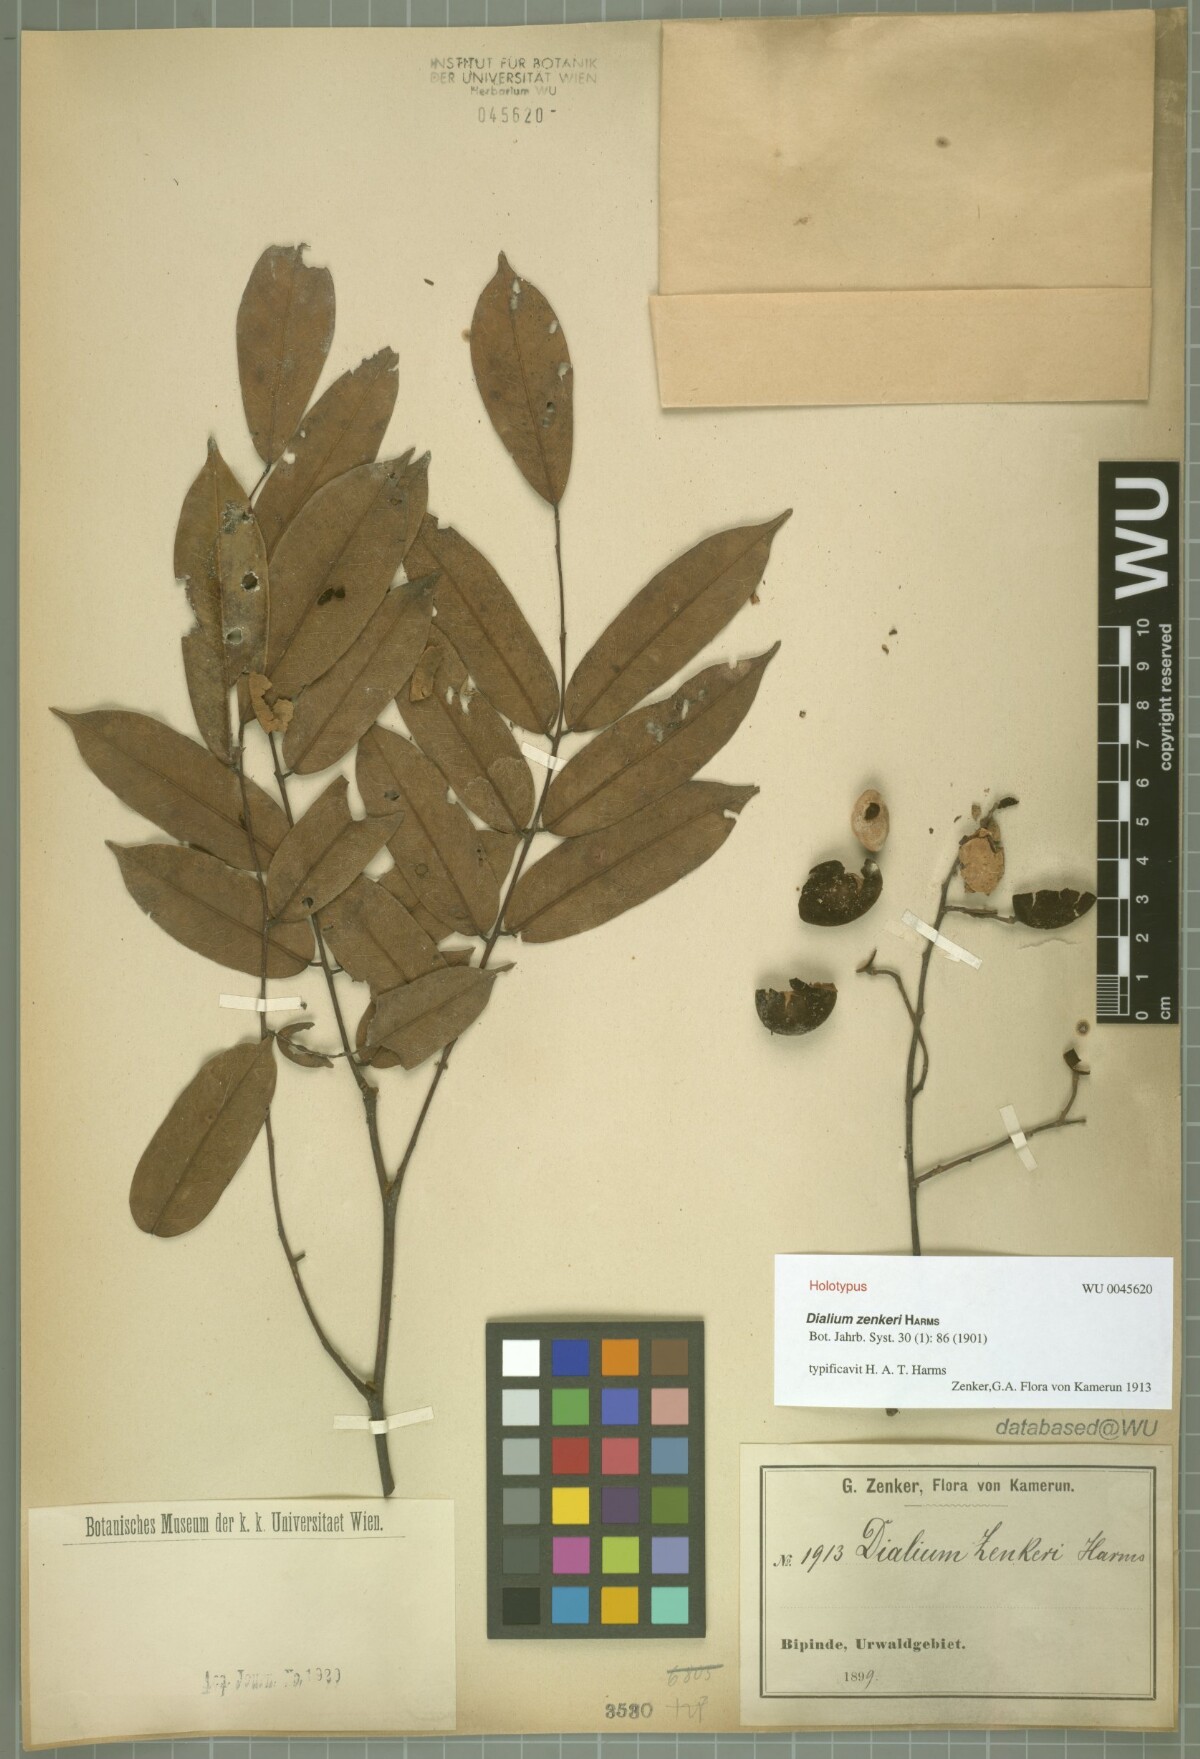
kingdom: Plantae
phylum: Tracheophyta
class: Magnoliopsida
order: Fabales
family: Fabaceae
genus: Dialium
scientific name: Dialium zenkeri
